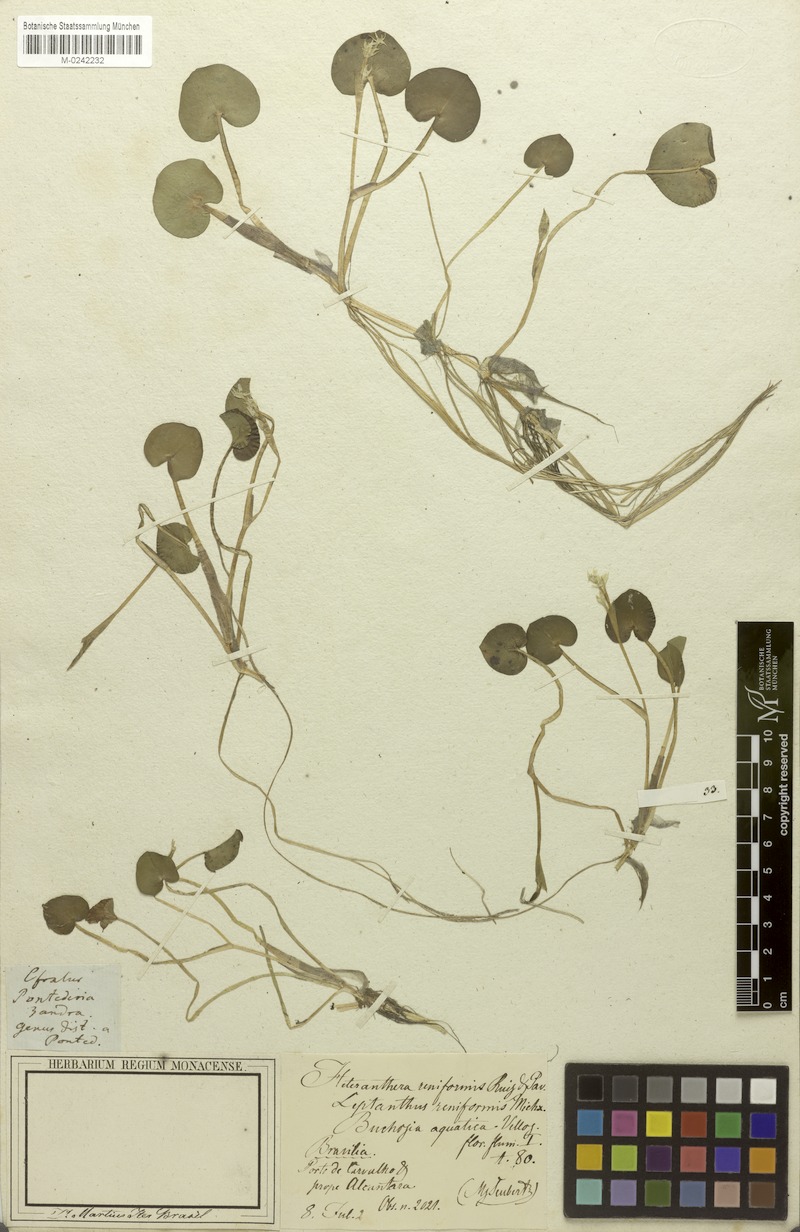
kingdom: Plantae
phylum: Tracheophyta
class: Liliopsida
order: Commelinales
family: Pontederiaceae
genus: Heteranthera
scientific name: Heteranthera reniformis
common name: Kidneyleaf mudplantain
